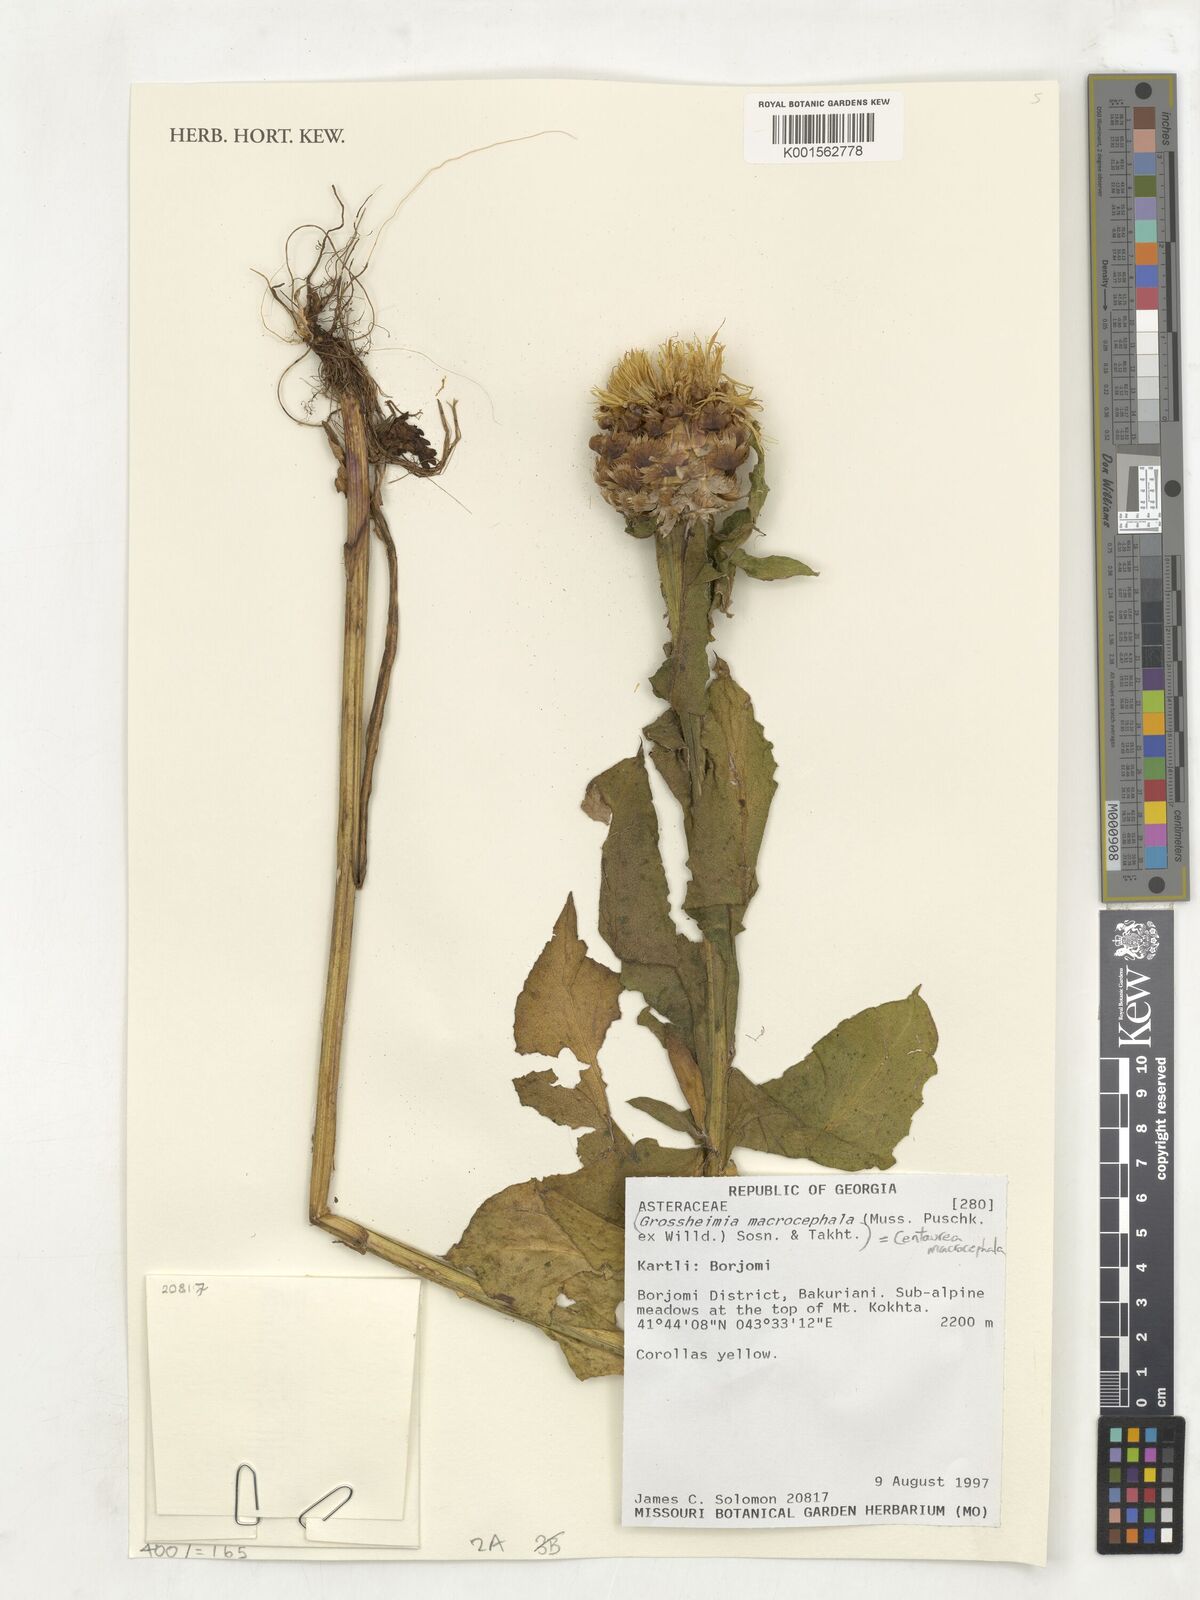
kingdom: Plantae
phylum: Tracheophyta
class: Magnoliopsida
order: Asterales
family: Asteraceae
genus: Centaurea
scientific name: Centaurea macrocephala
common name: Big-head knapweed
